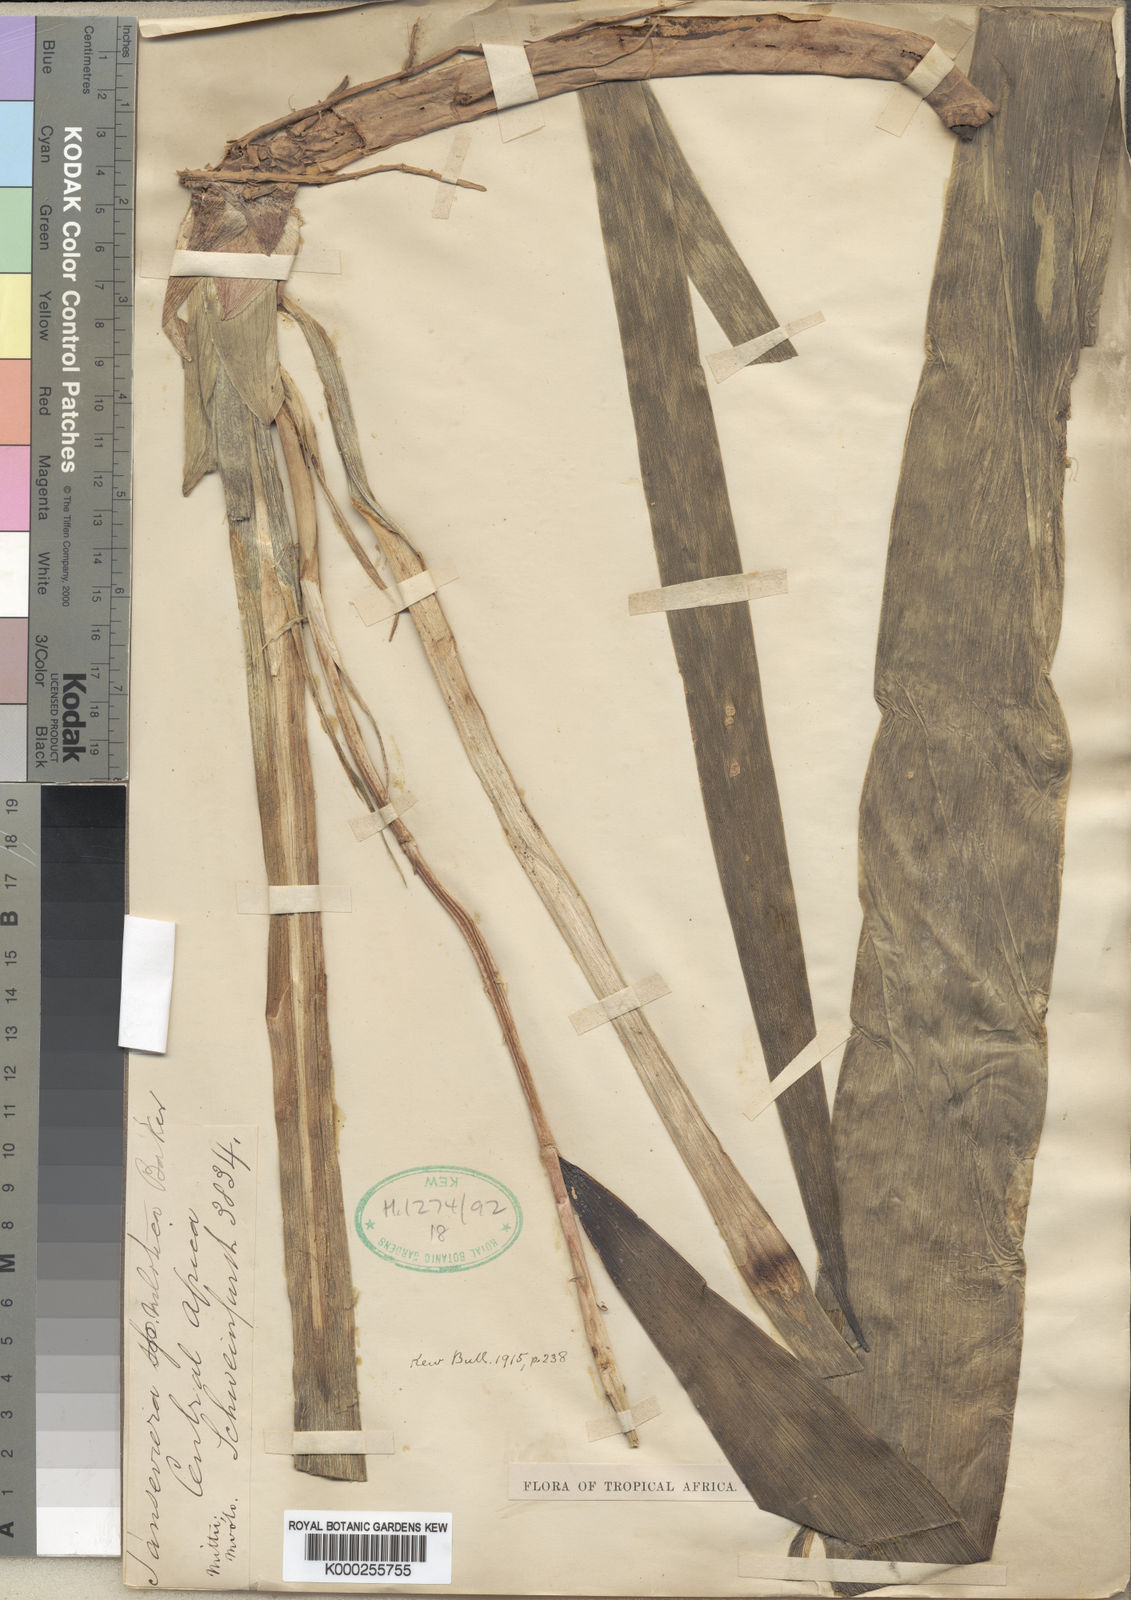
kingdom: Plantae
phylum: Tracheophyta
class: Liliopsida
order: Asparagales
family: Asparagaceae
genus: Dracaena
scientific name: Dracaena nilotica
